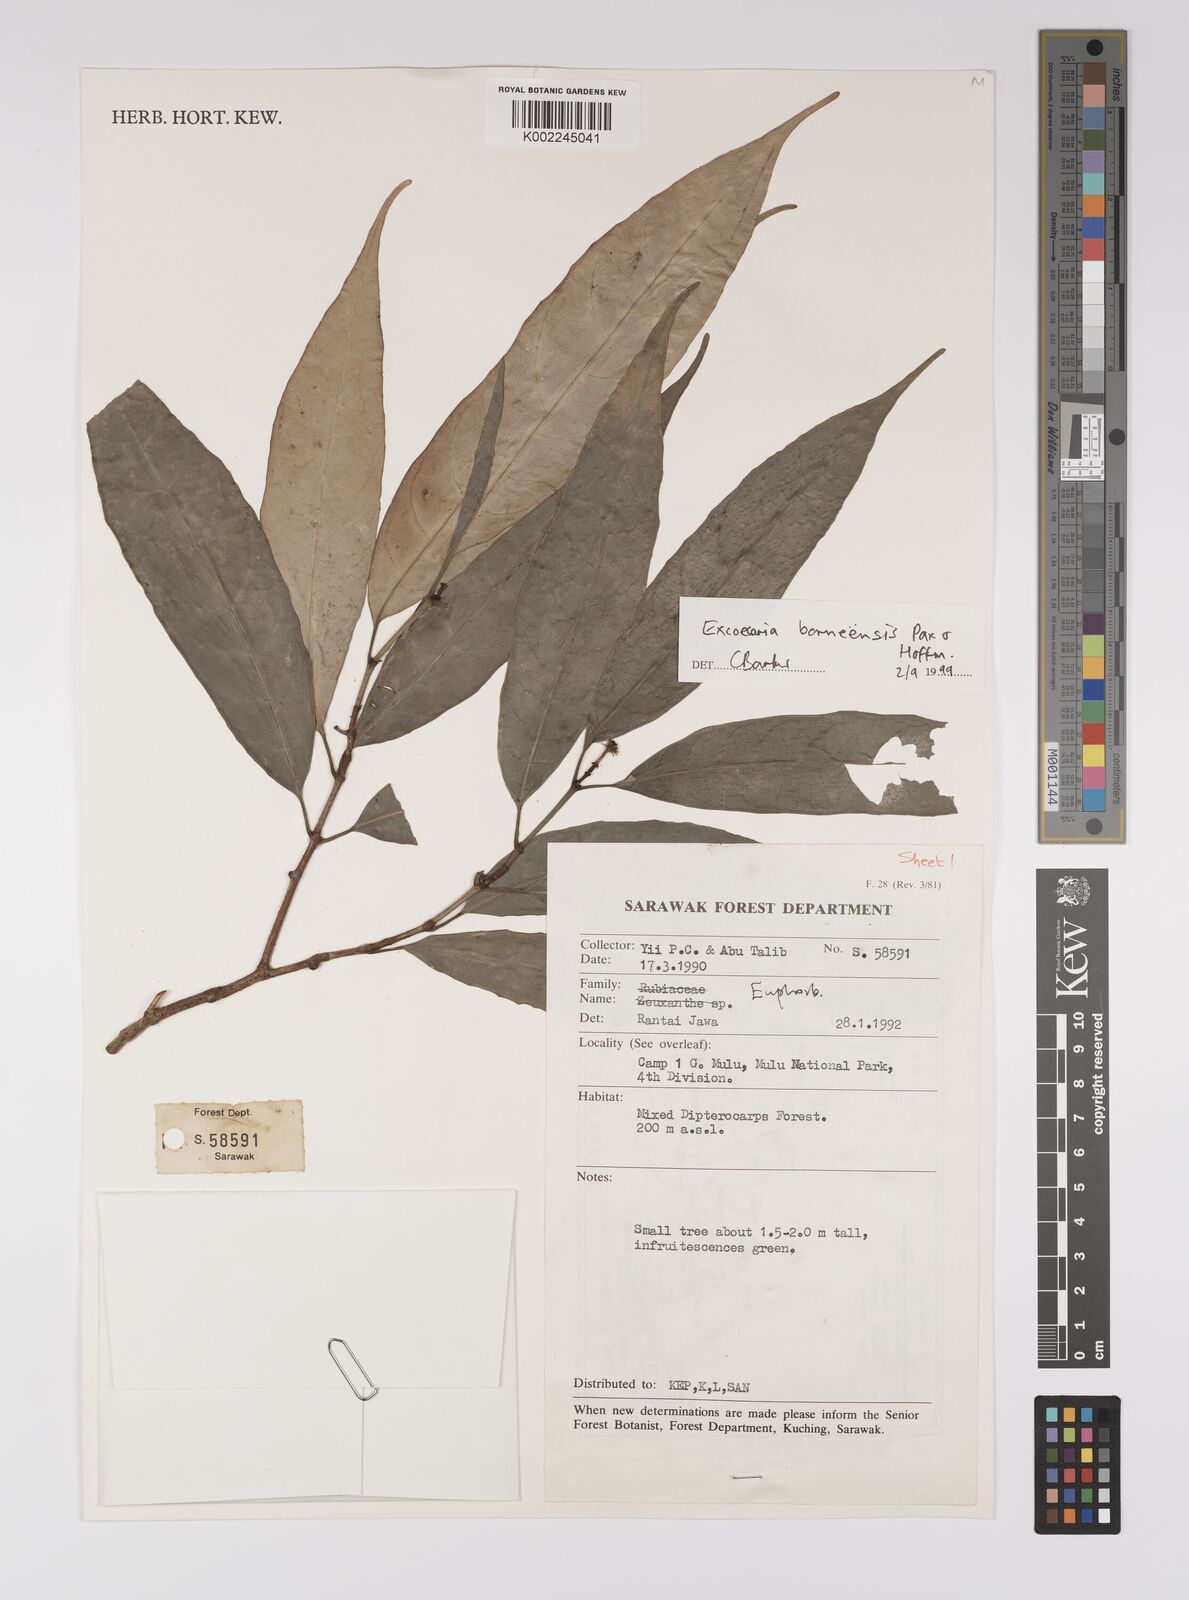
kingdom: Plantae
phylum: Tracheophyta
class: Magnoliopsida
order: Malpighiales
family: Euphorbiaceae
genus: Excoecaria
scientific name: Excoecaria borneensis
